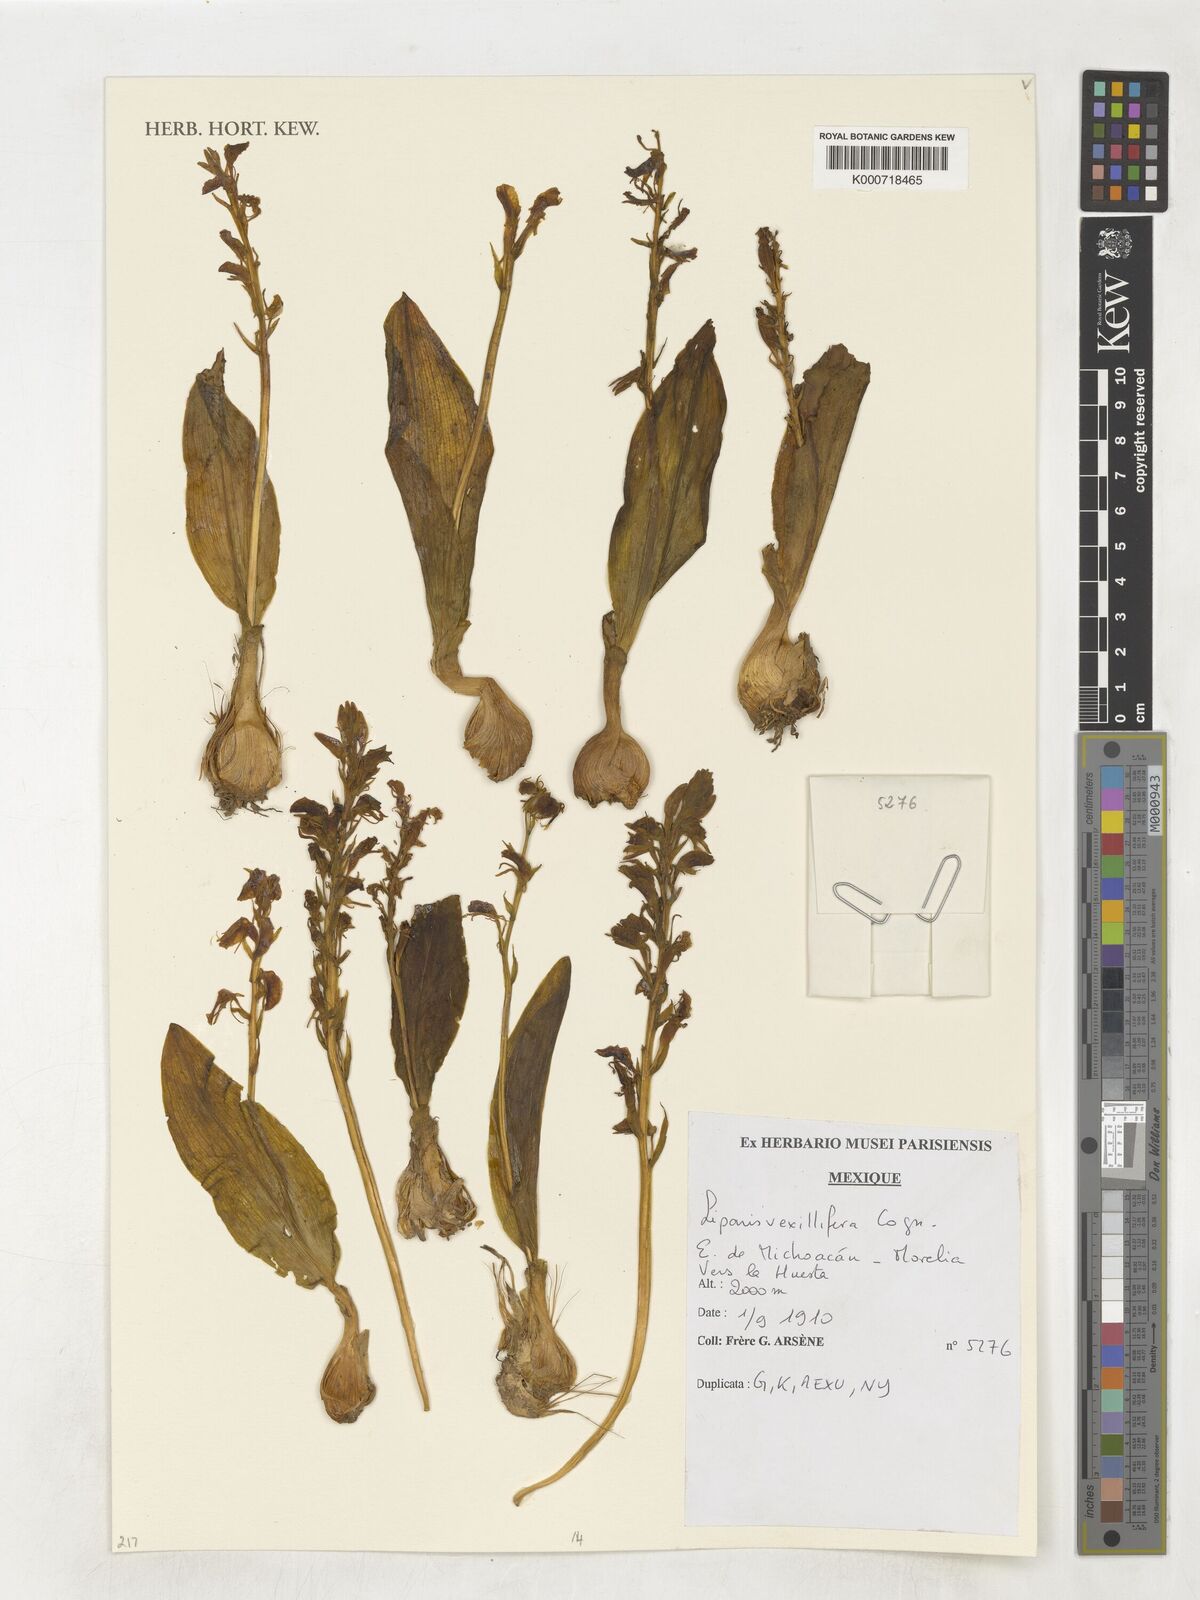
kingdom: Plantae
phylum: Tracheophyta
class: Liliopsida
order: Asparagales
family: Orchidaceae
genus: Liparis
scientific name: Liparis vexillifera
